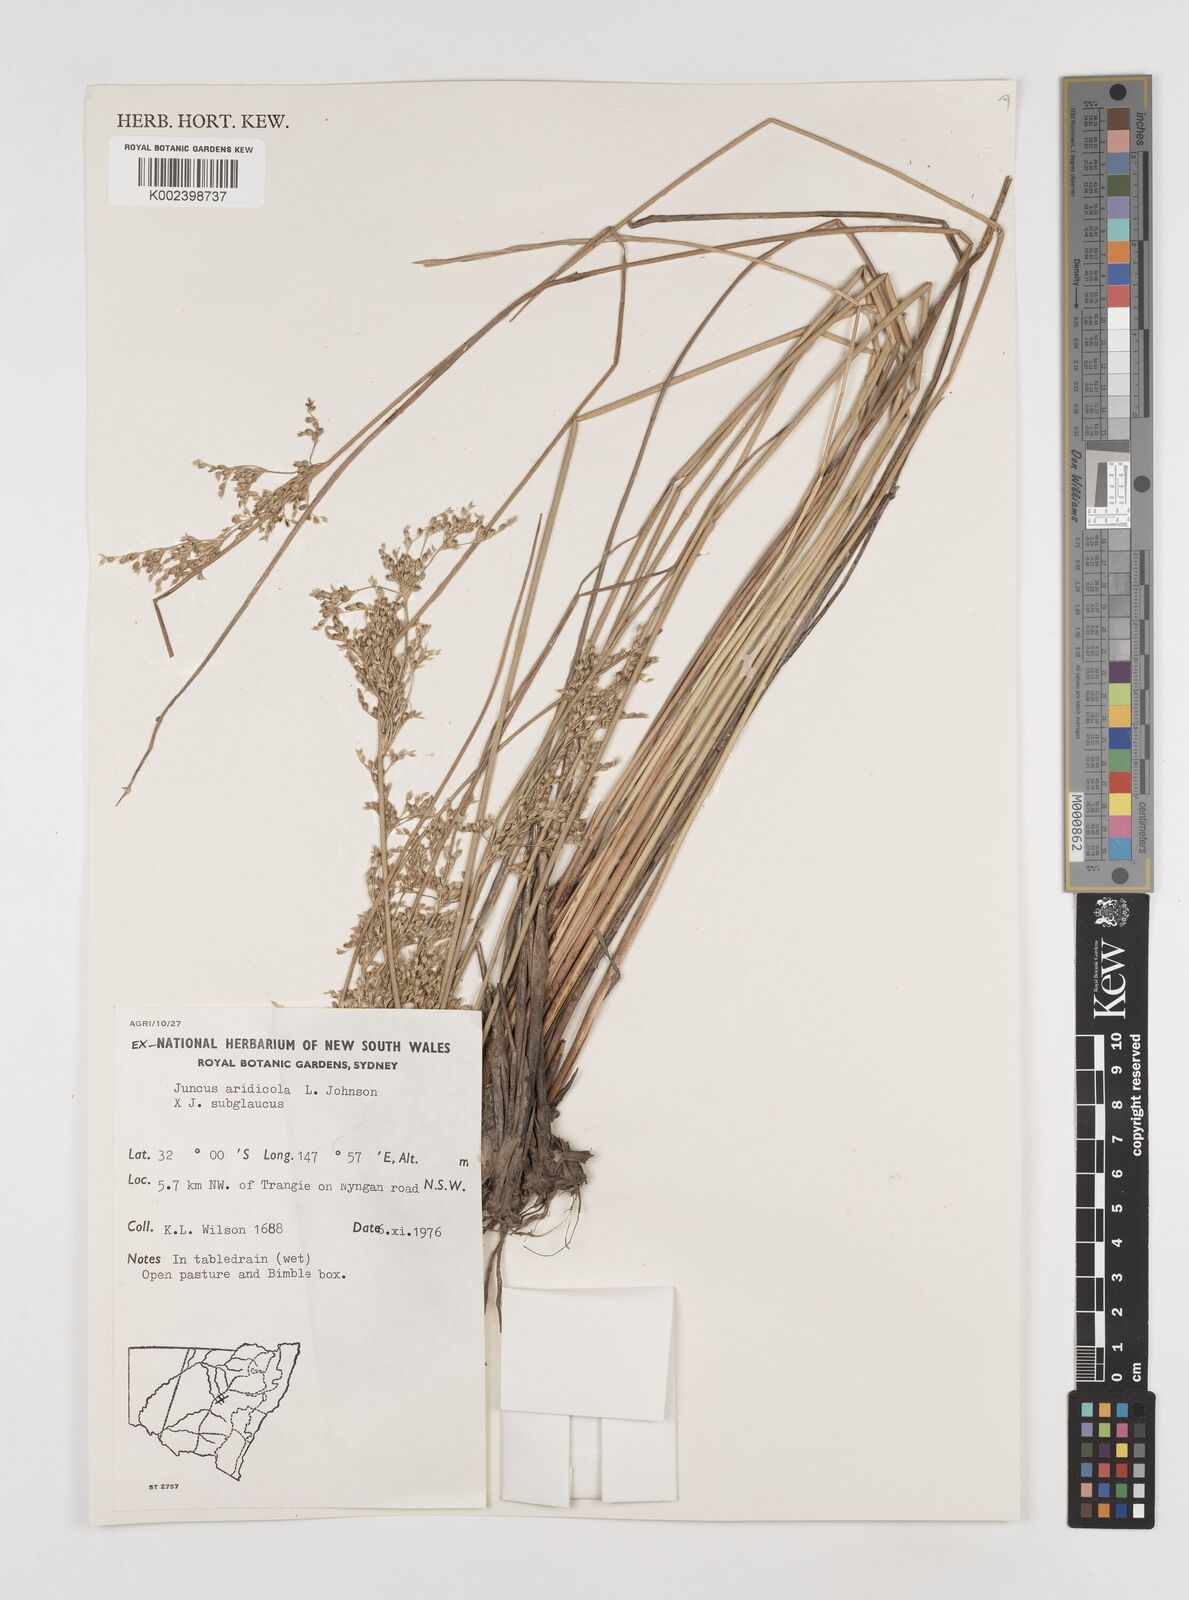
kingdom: Plantae
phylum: Tracheophyta
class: Liliopsida
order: Poales
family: Juncaceae
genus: Juncus
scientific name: Juncus
